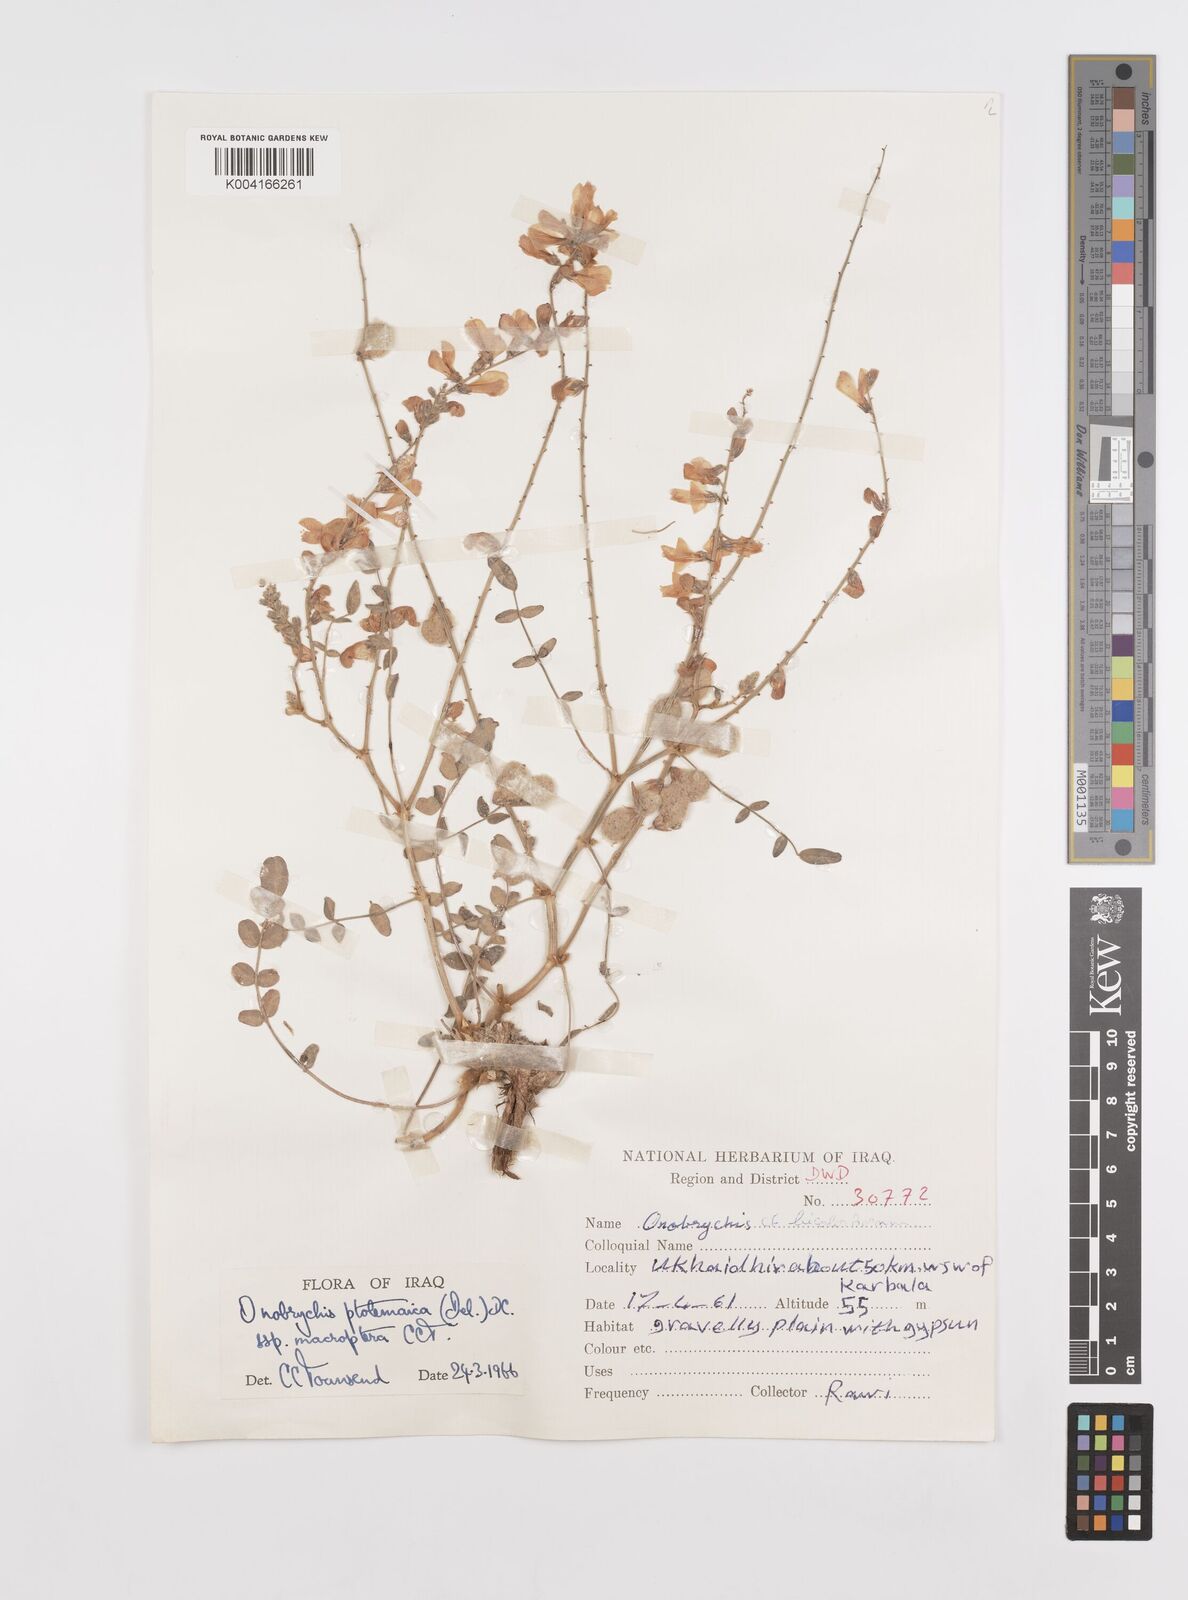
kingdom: Plantae
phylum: Tracheophyta
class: Magnoliopsida
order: Fabales
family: Fabaceae
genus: Onobrychis
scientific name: Onobrychis ptolemaica
